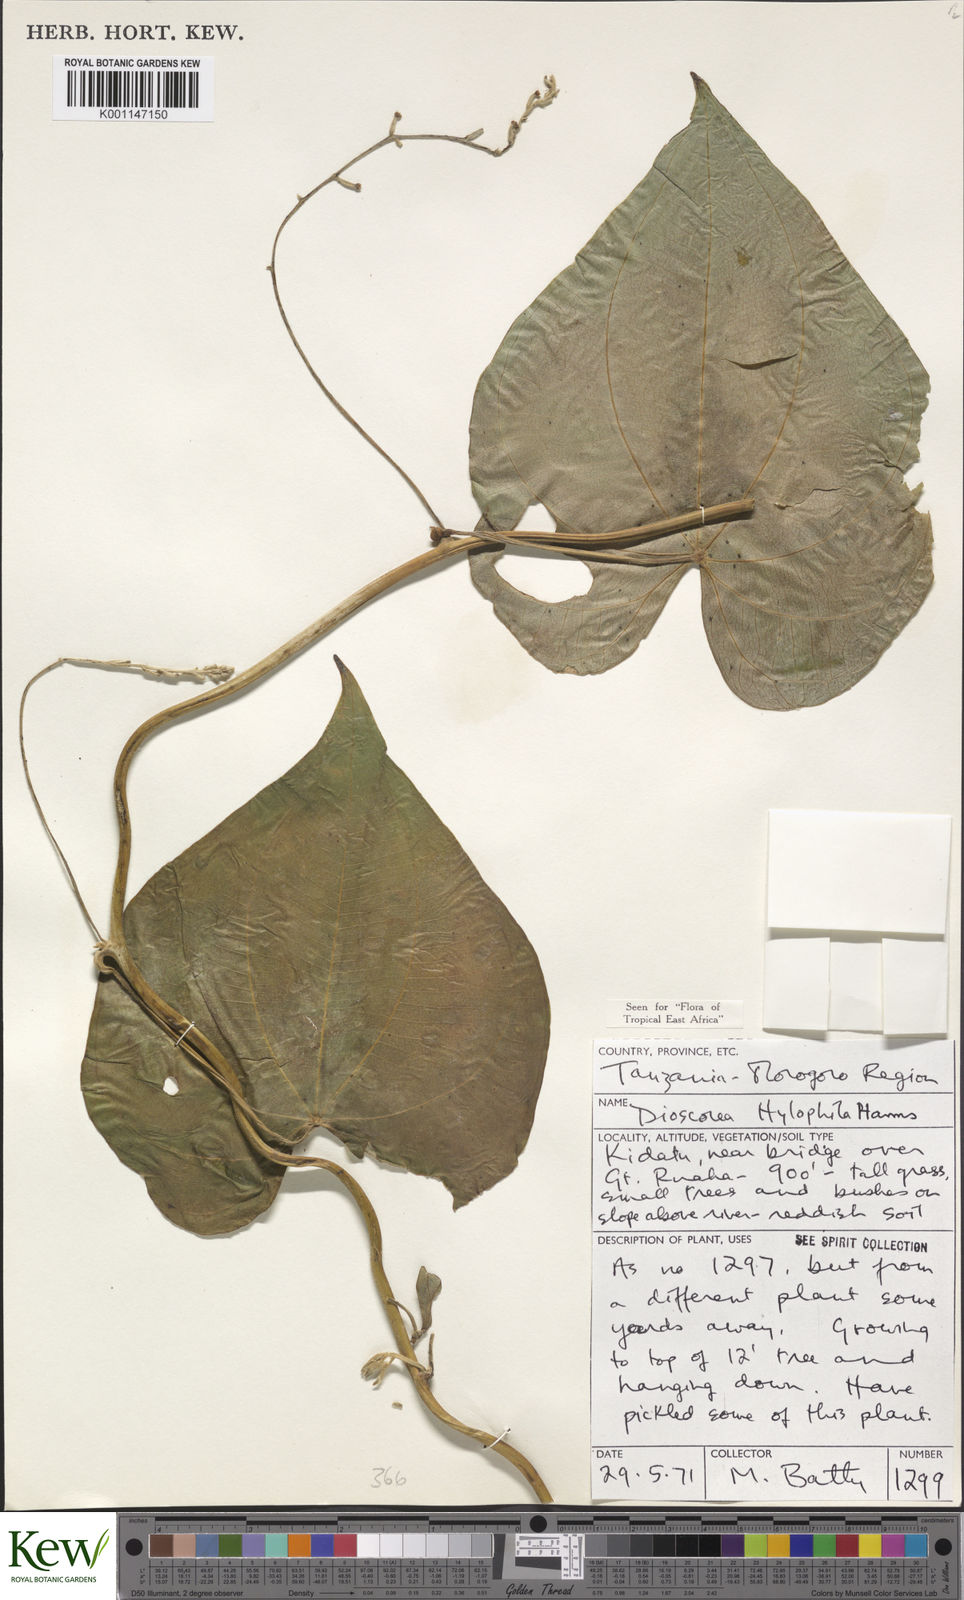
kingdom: Plantae
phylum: Tracheophyta
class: Liliopsida
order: Dioscoreales
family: Dioscoreaceae
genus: Dioscorea
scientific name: Dioscorea
